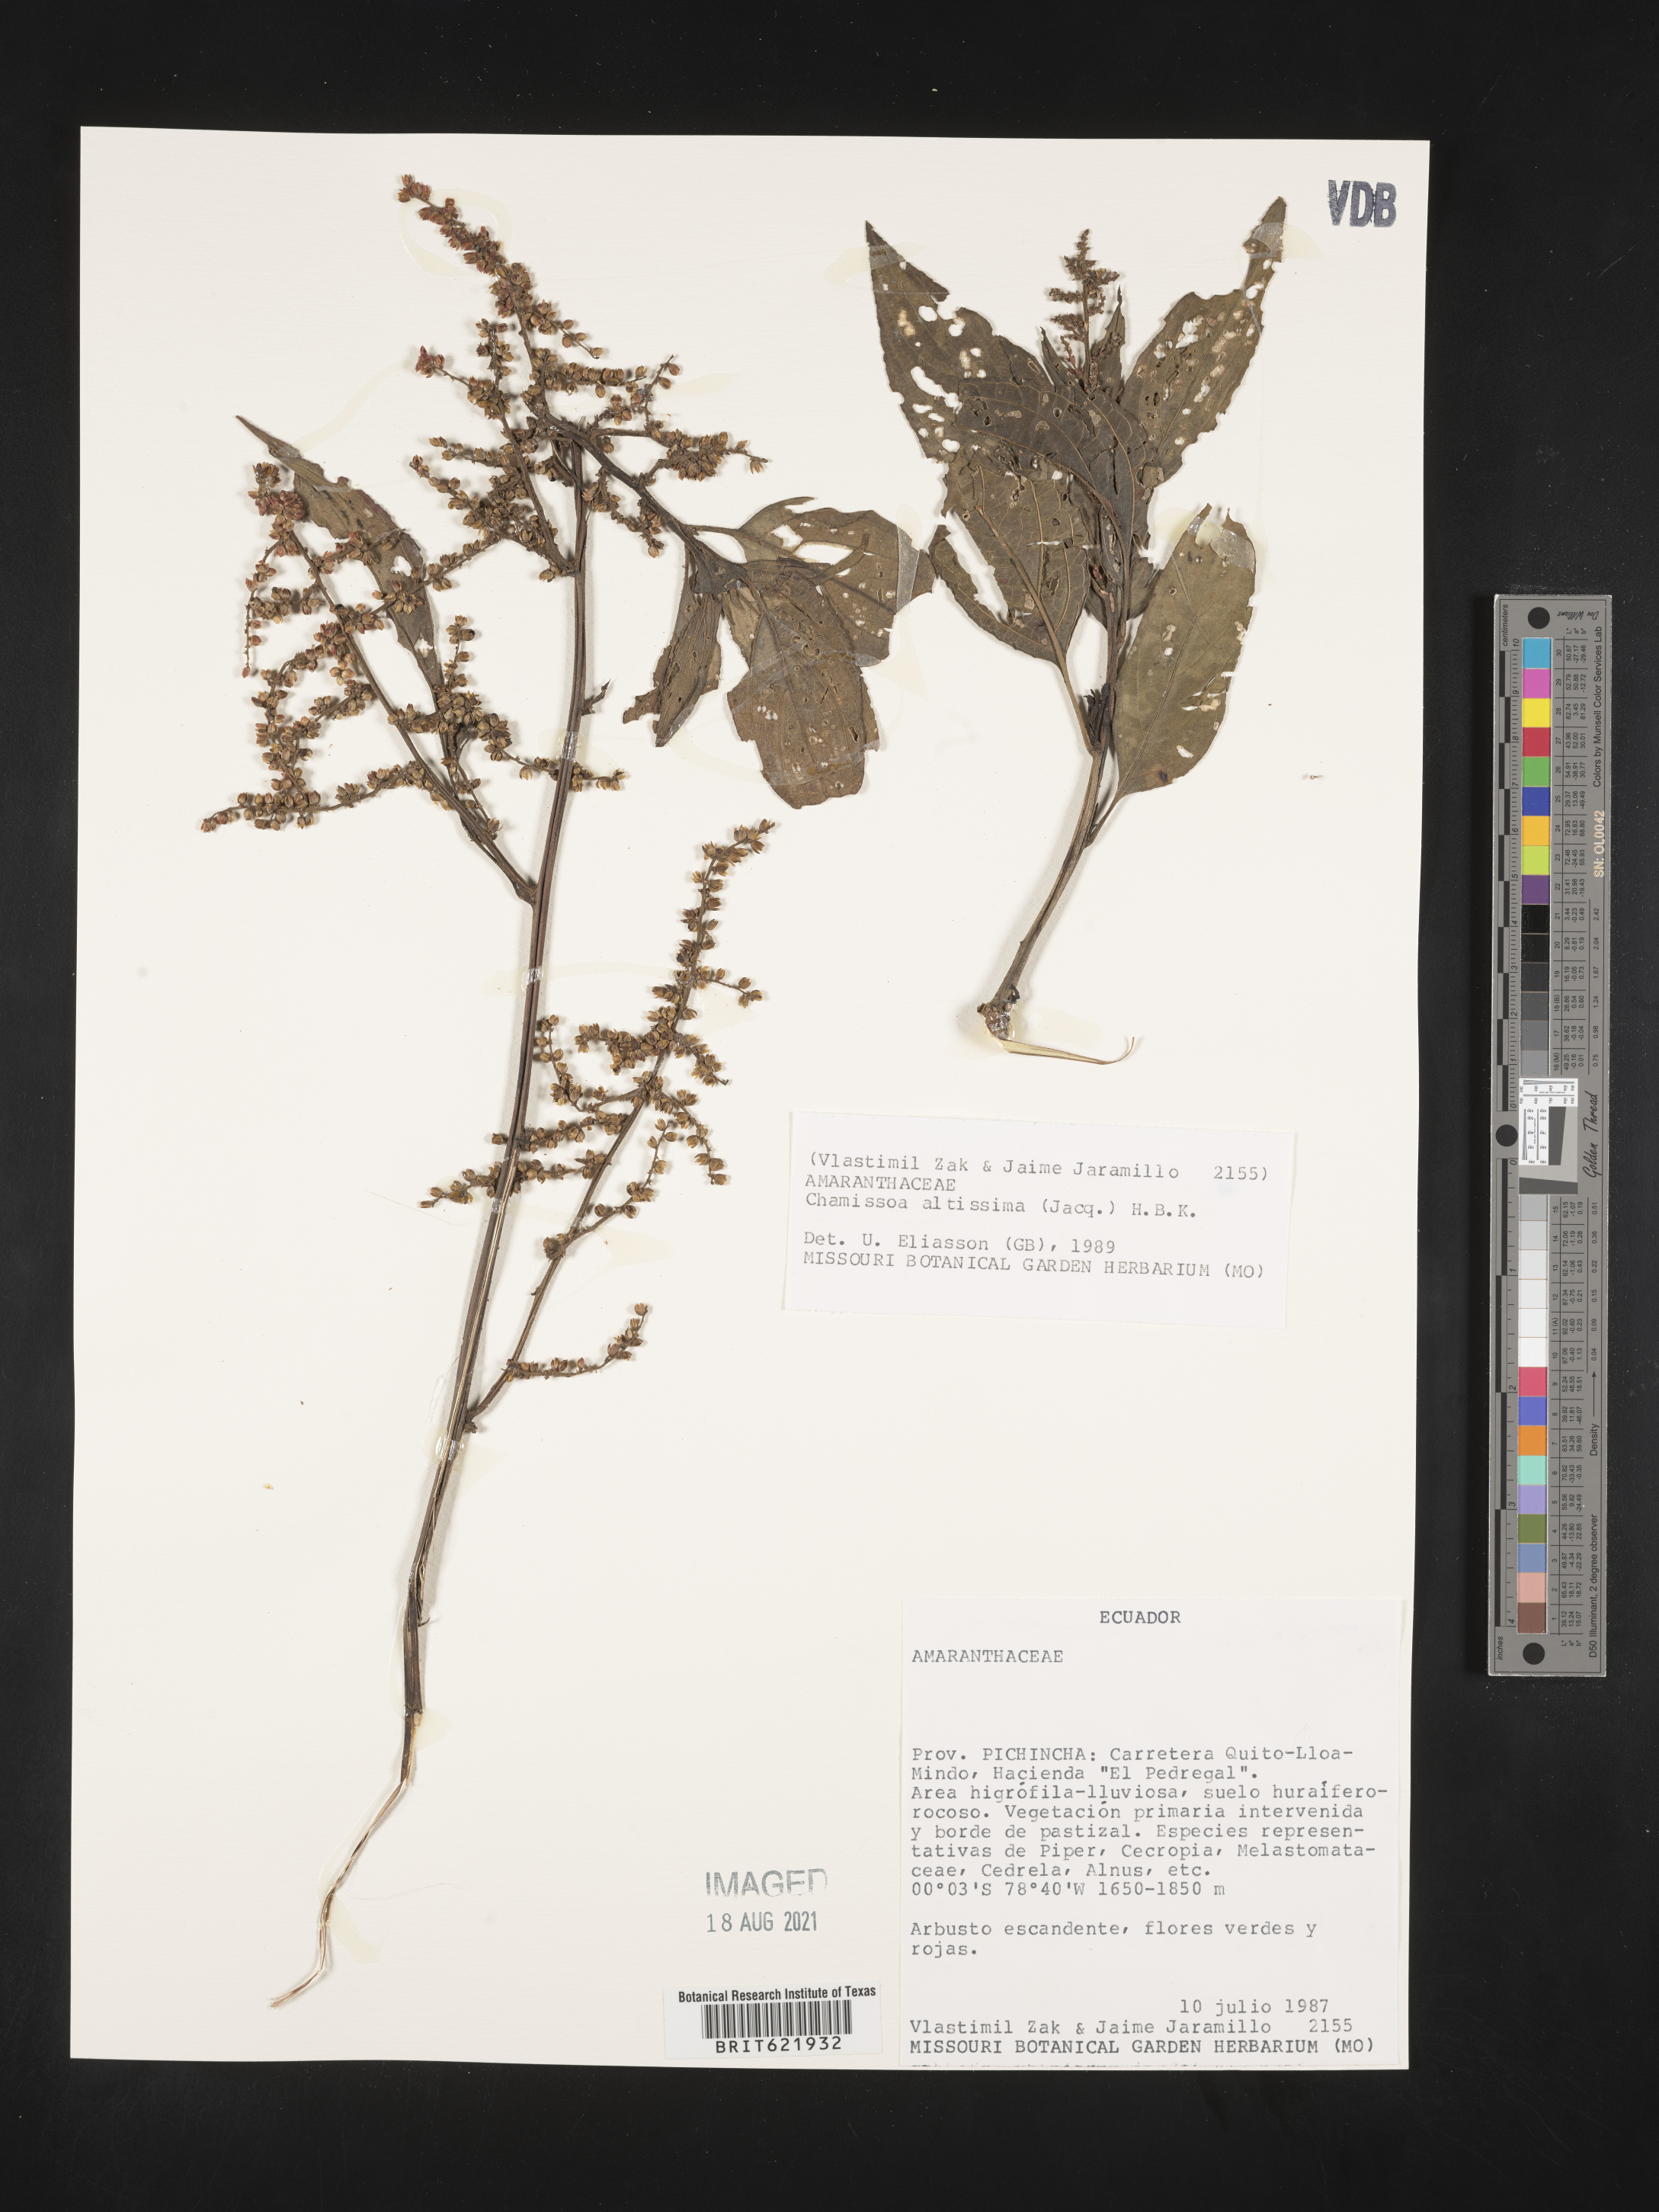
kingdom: Plantae
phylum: Tracheophyta
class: Magnoliopsida
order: Caryophyllales
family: Amaranthaceae
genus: Chamissoa
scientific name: Chamissoa altissima
